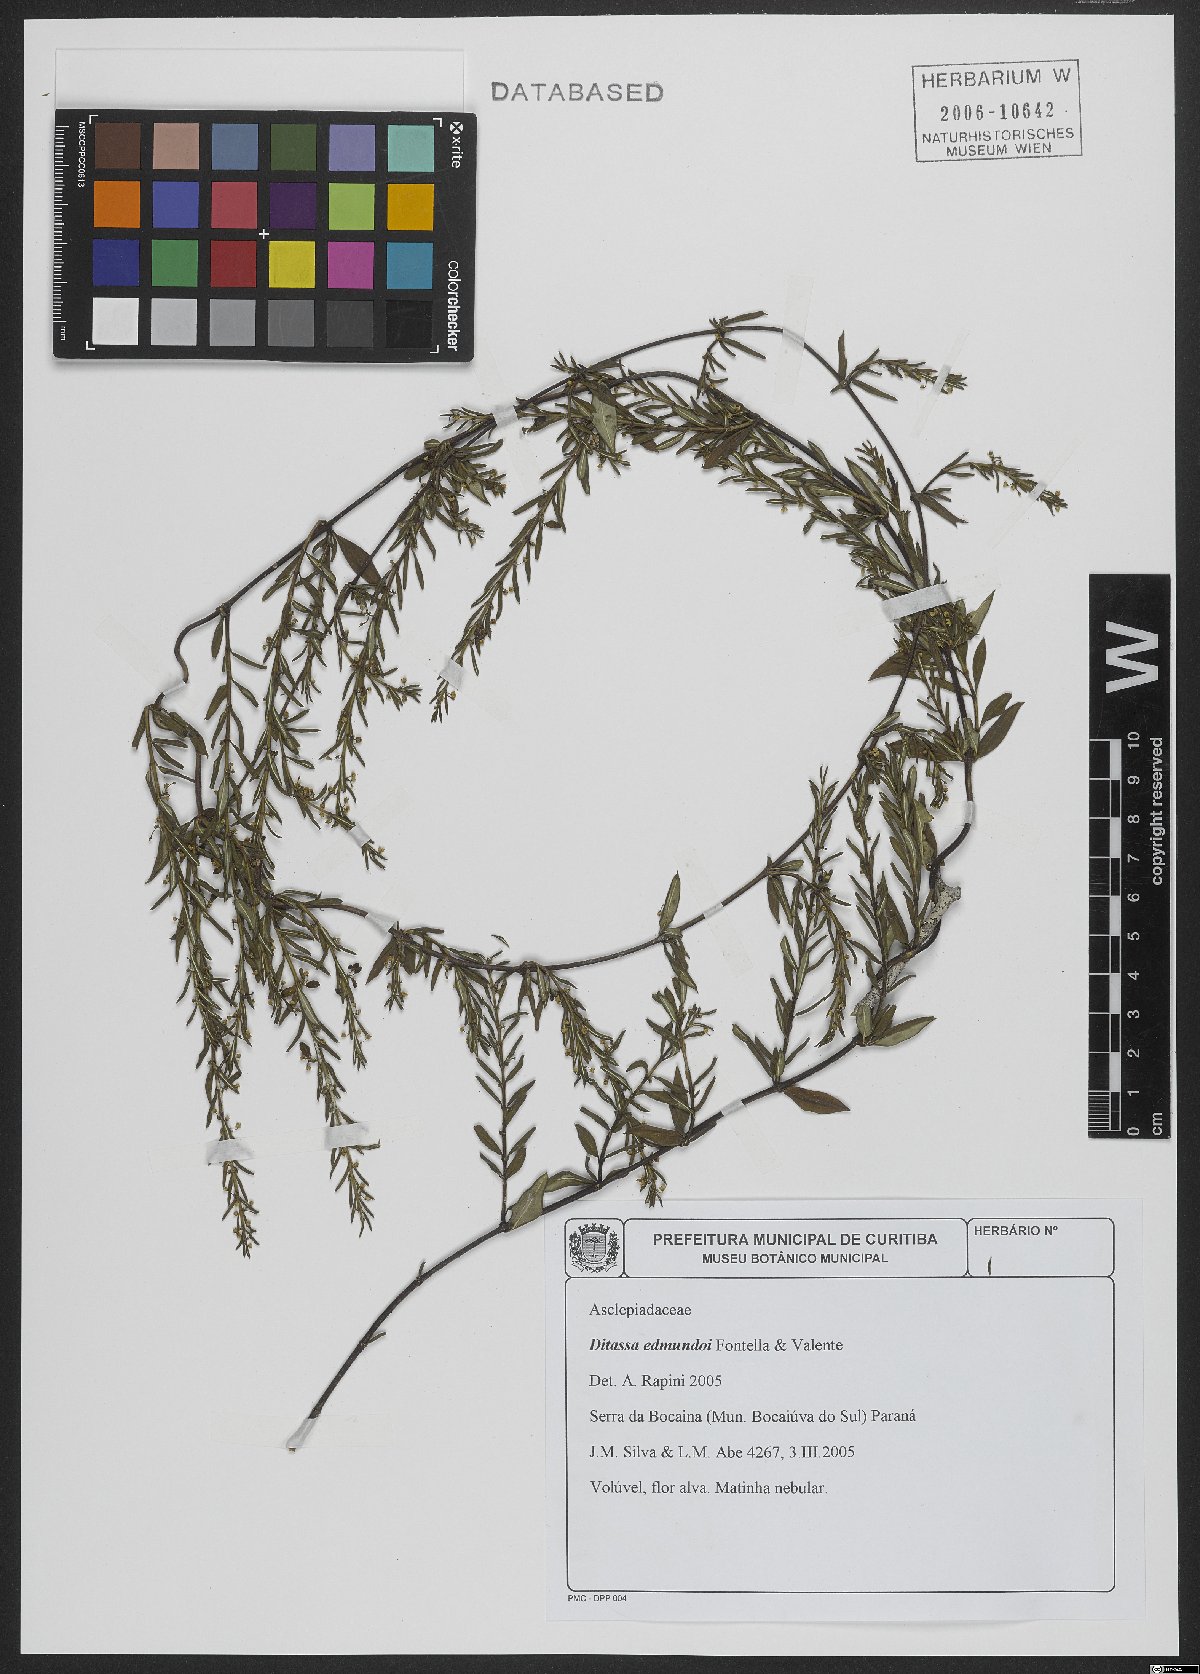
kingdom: Plantae
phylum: Tracheophyta
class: Magnoliopsida
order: Gentianales
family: Apocynaceae
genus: Ditassa
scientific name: Ditassa edmundoi
